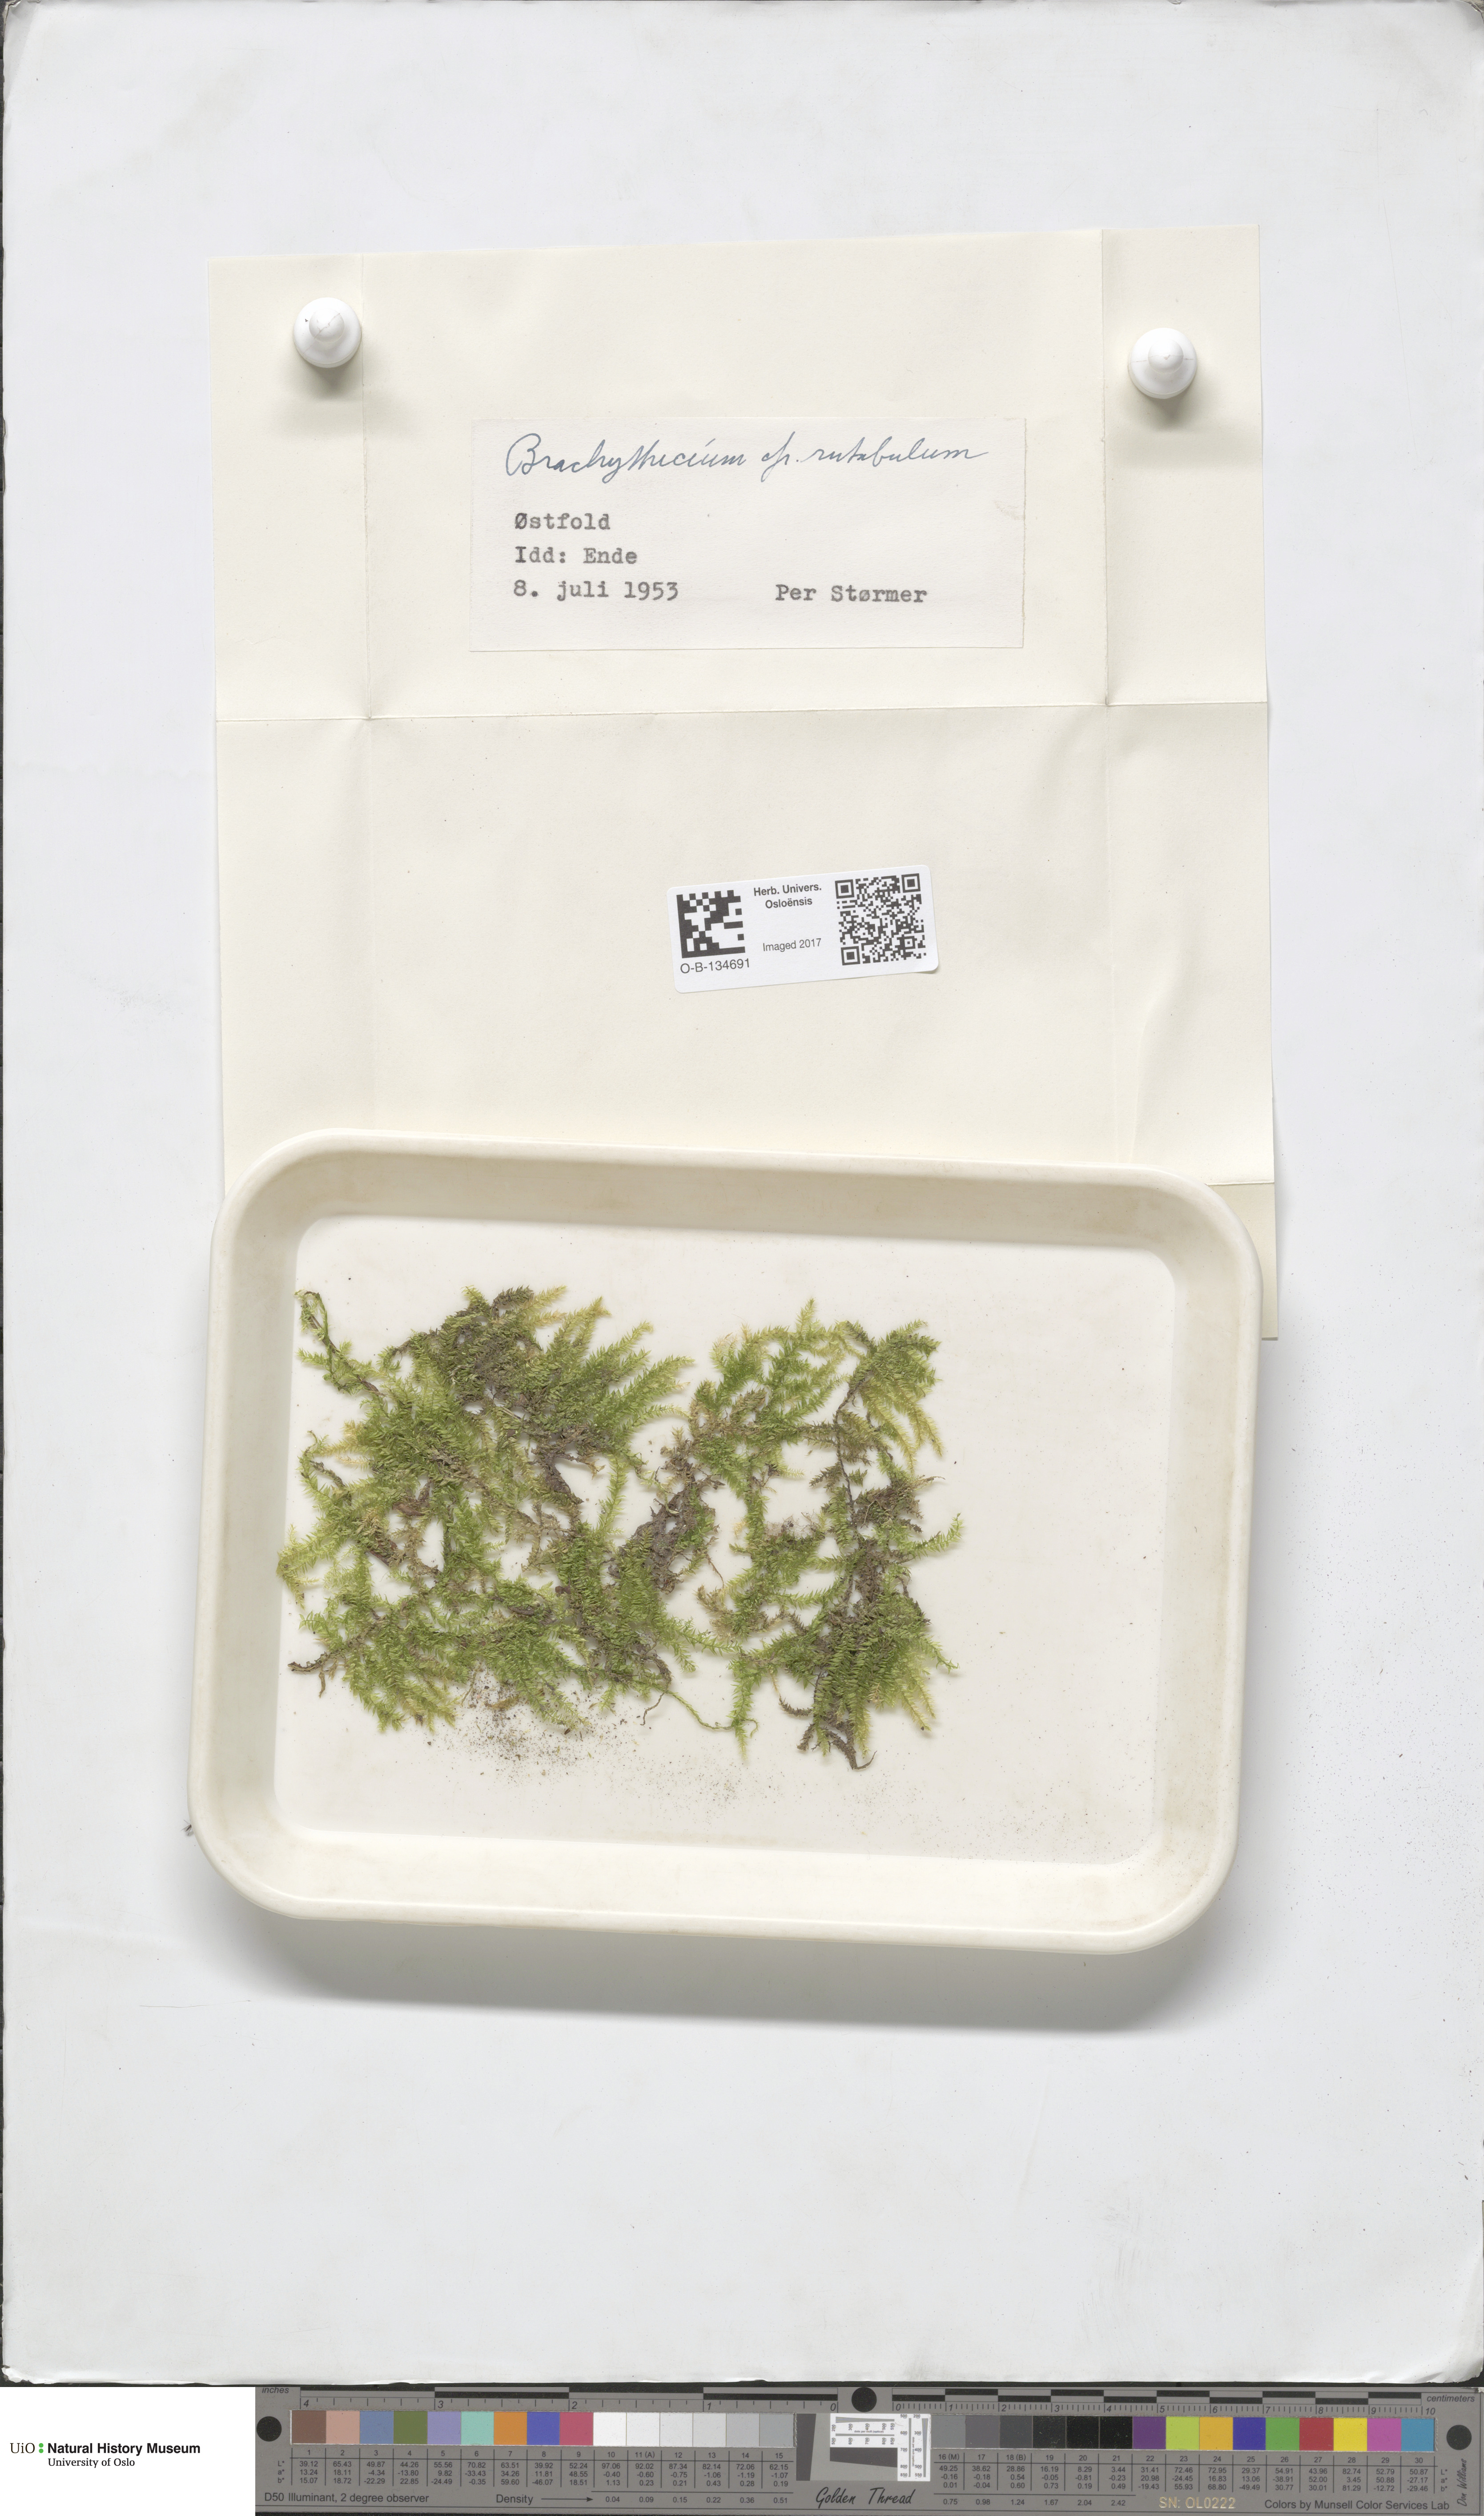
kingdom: Plantae
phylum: Bryophyta
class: Bryopsida
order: Hypnales
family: Brachytheciaceae
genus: Brachythecium
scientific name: Brachythecium rutabulum
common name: Rough-stalked feather-moss
